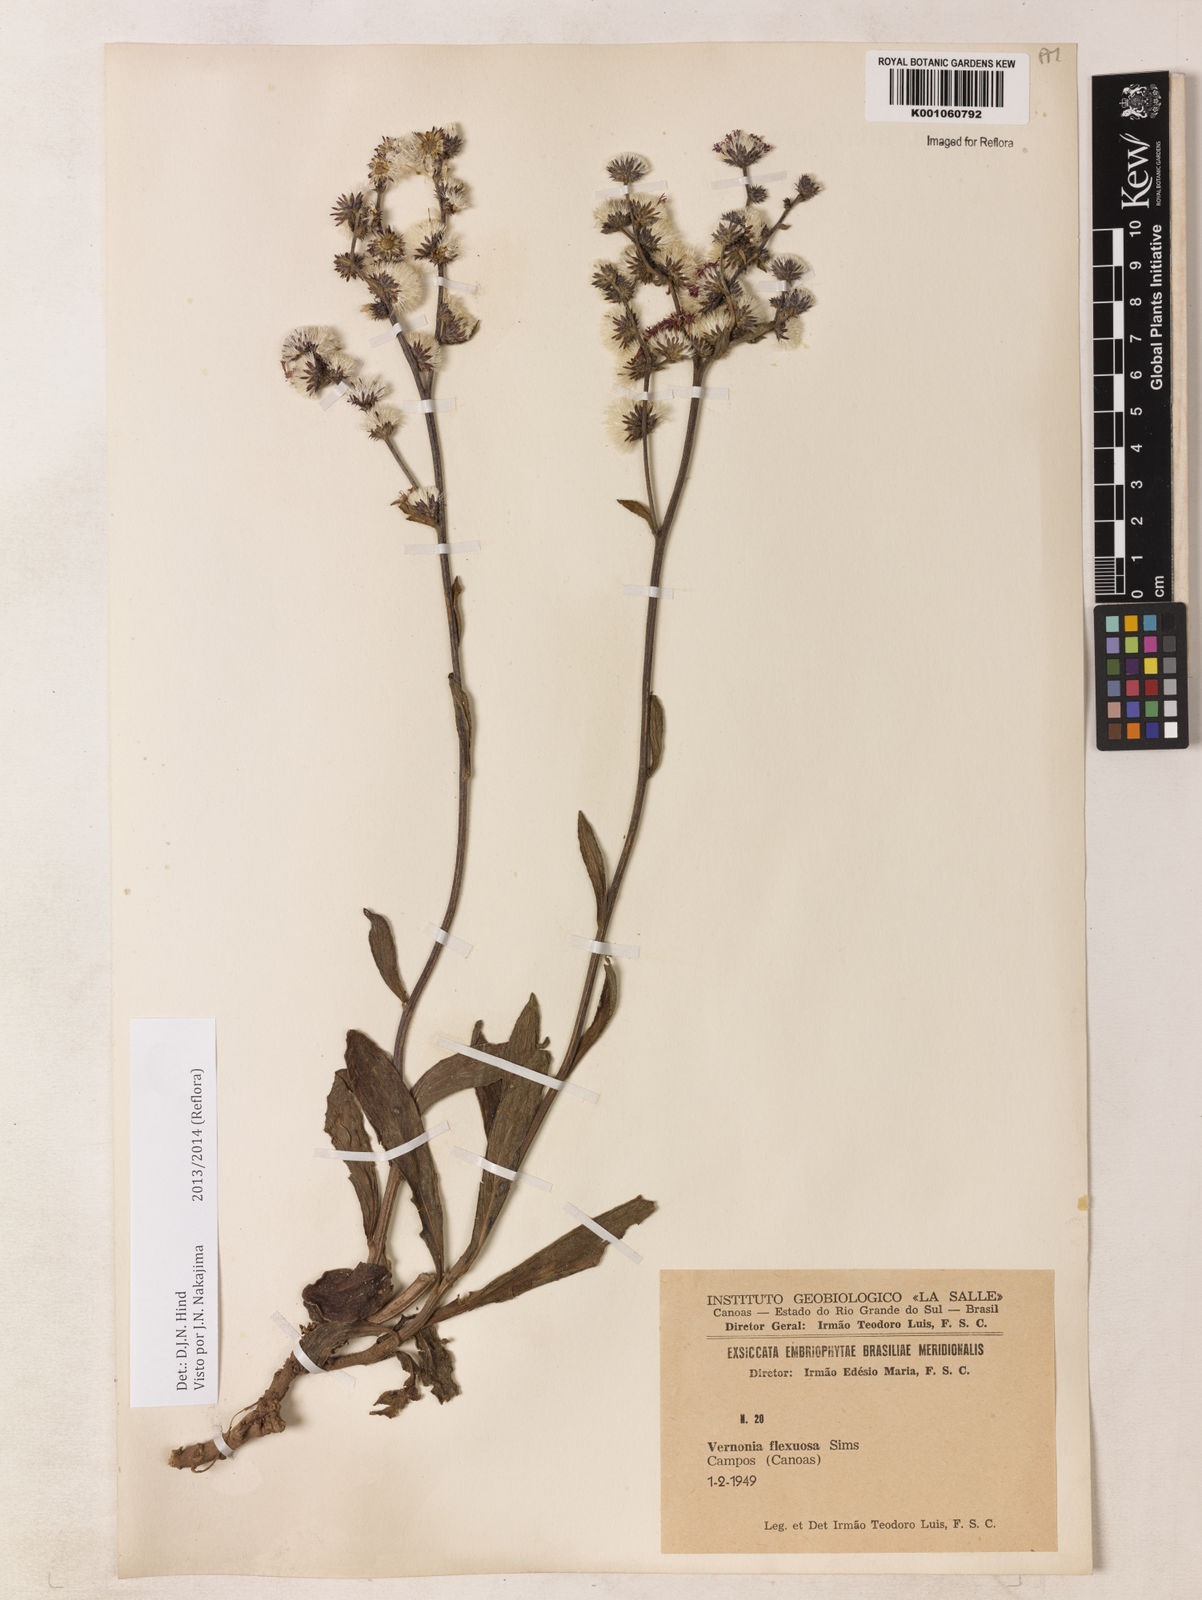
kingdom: Plantae
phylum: Tracheophyta
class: Magnoliopsida
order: Asterales
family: Asteraceae
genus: Chrysolaena
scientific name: Chrysolaena flexuosa
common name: Zig-zag vernonia
